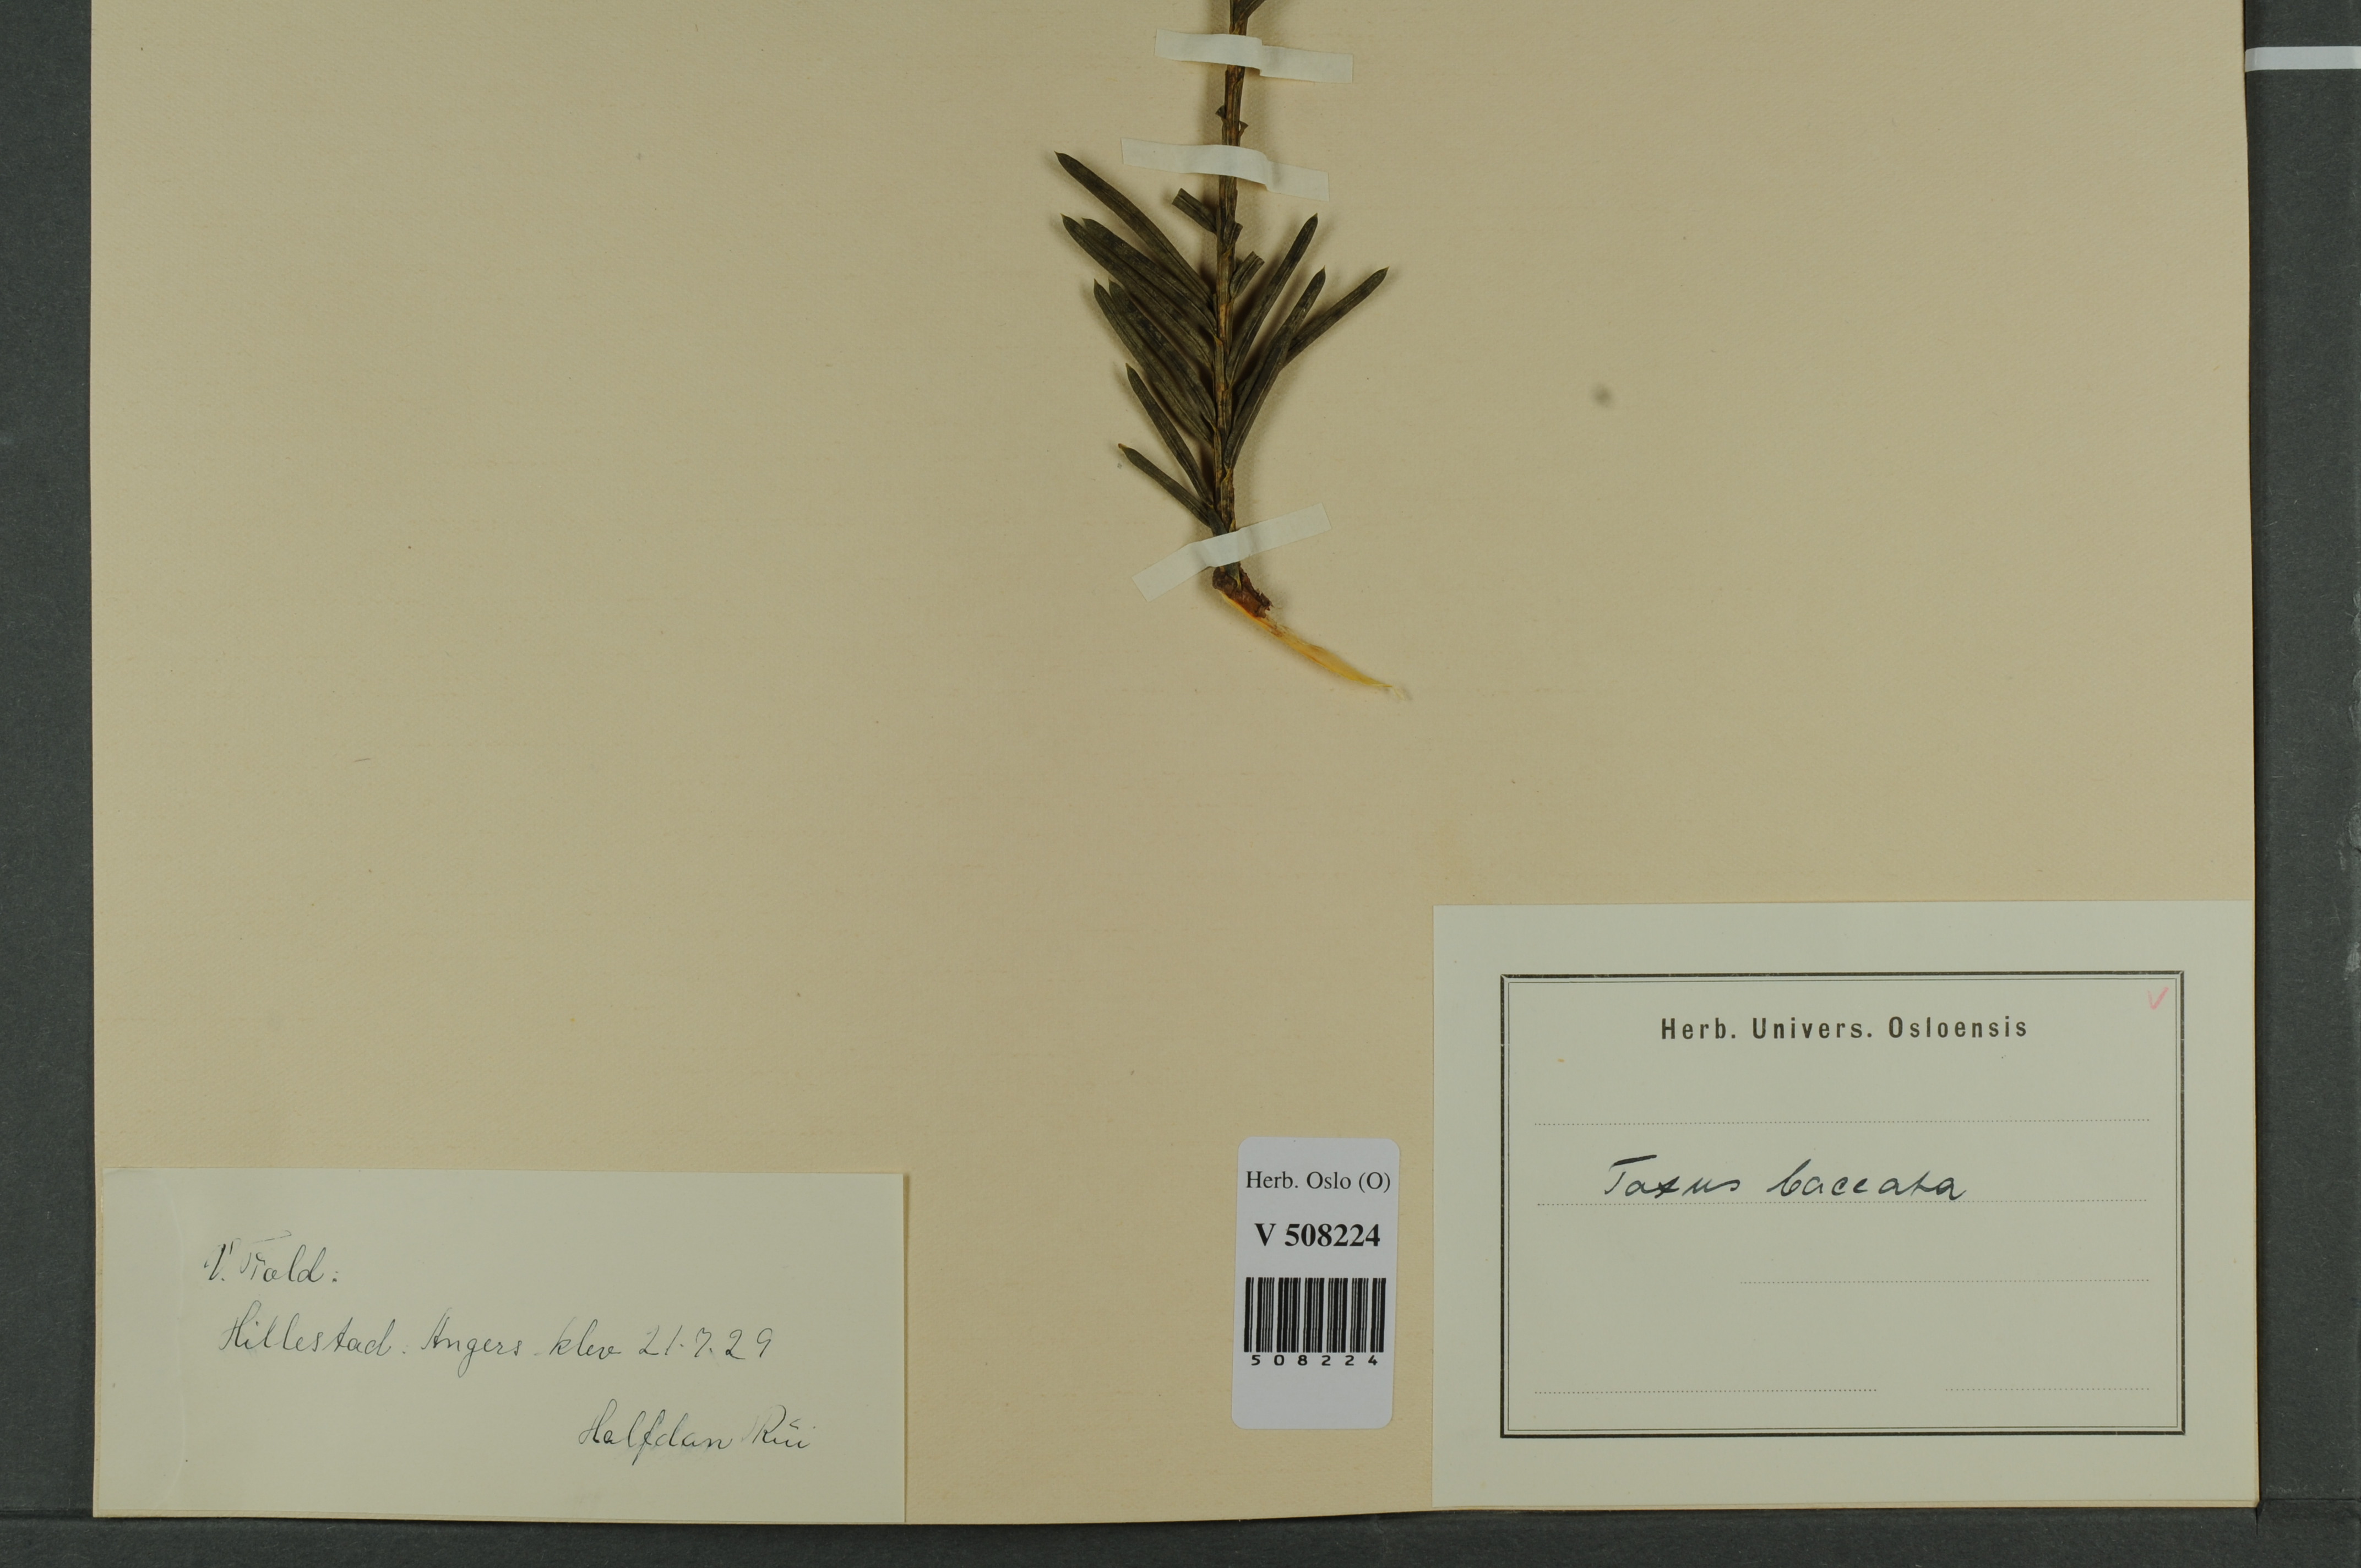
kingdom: Plantae
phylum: Tracheophyta
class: Pinopsida
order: Pinales
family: Taxaceae
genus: Taxus
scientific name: Taxus baccata
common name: Yew
